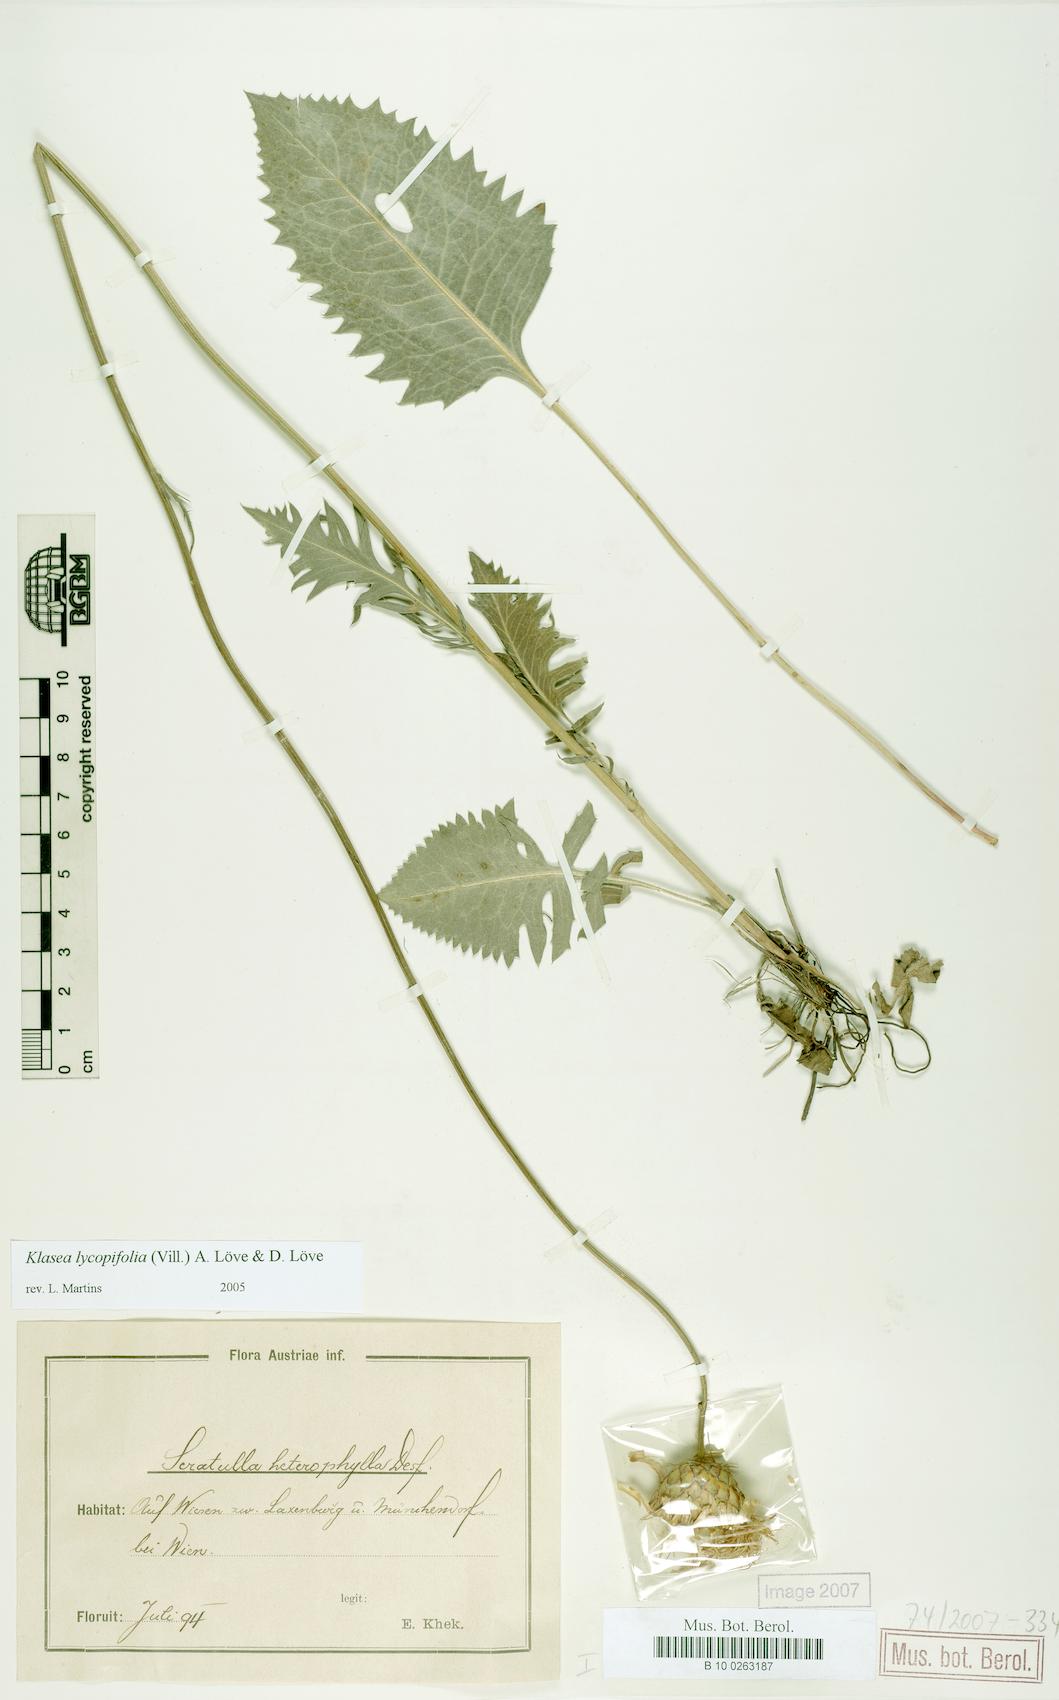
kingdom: Plantae
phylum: Tracheophyta
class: Magnoliopsida
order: Asterales
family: Asteraceae
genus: Klasea
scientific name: Klasea lycopifolia
